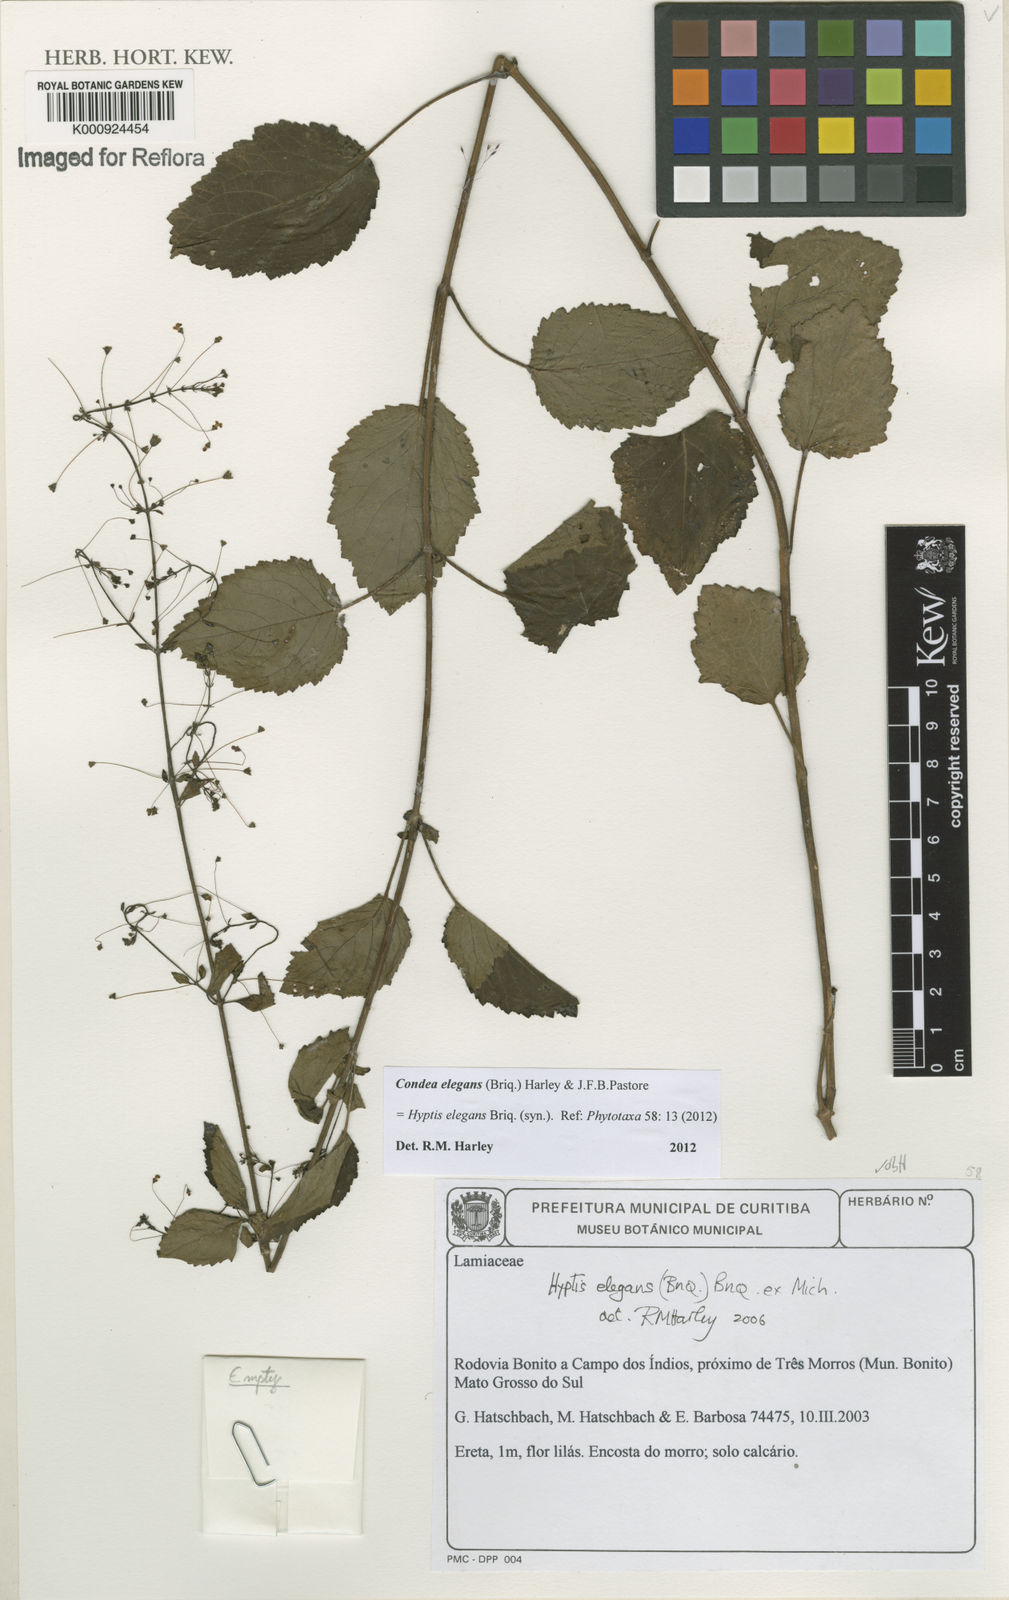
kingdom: Plantae
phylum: Tracheophyta
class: Magnoliopsida
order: Lamiales
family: Lamiaceae
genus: Condea
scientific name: Condea elegans
